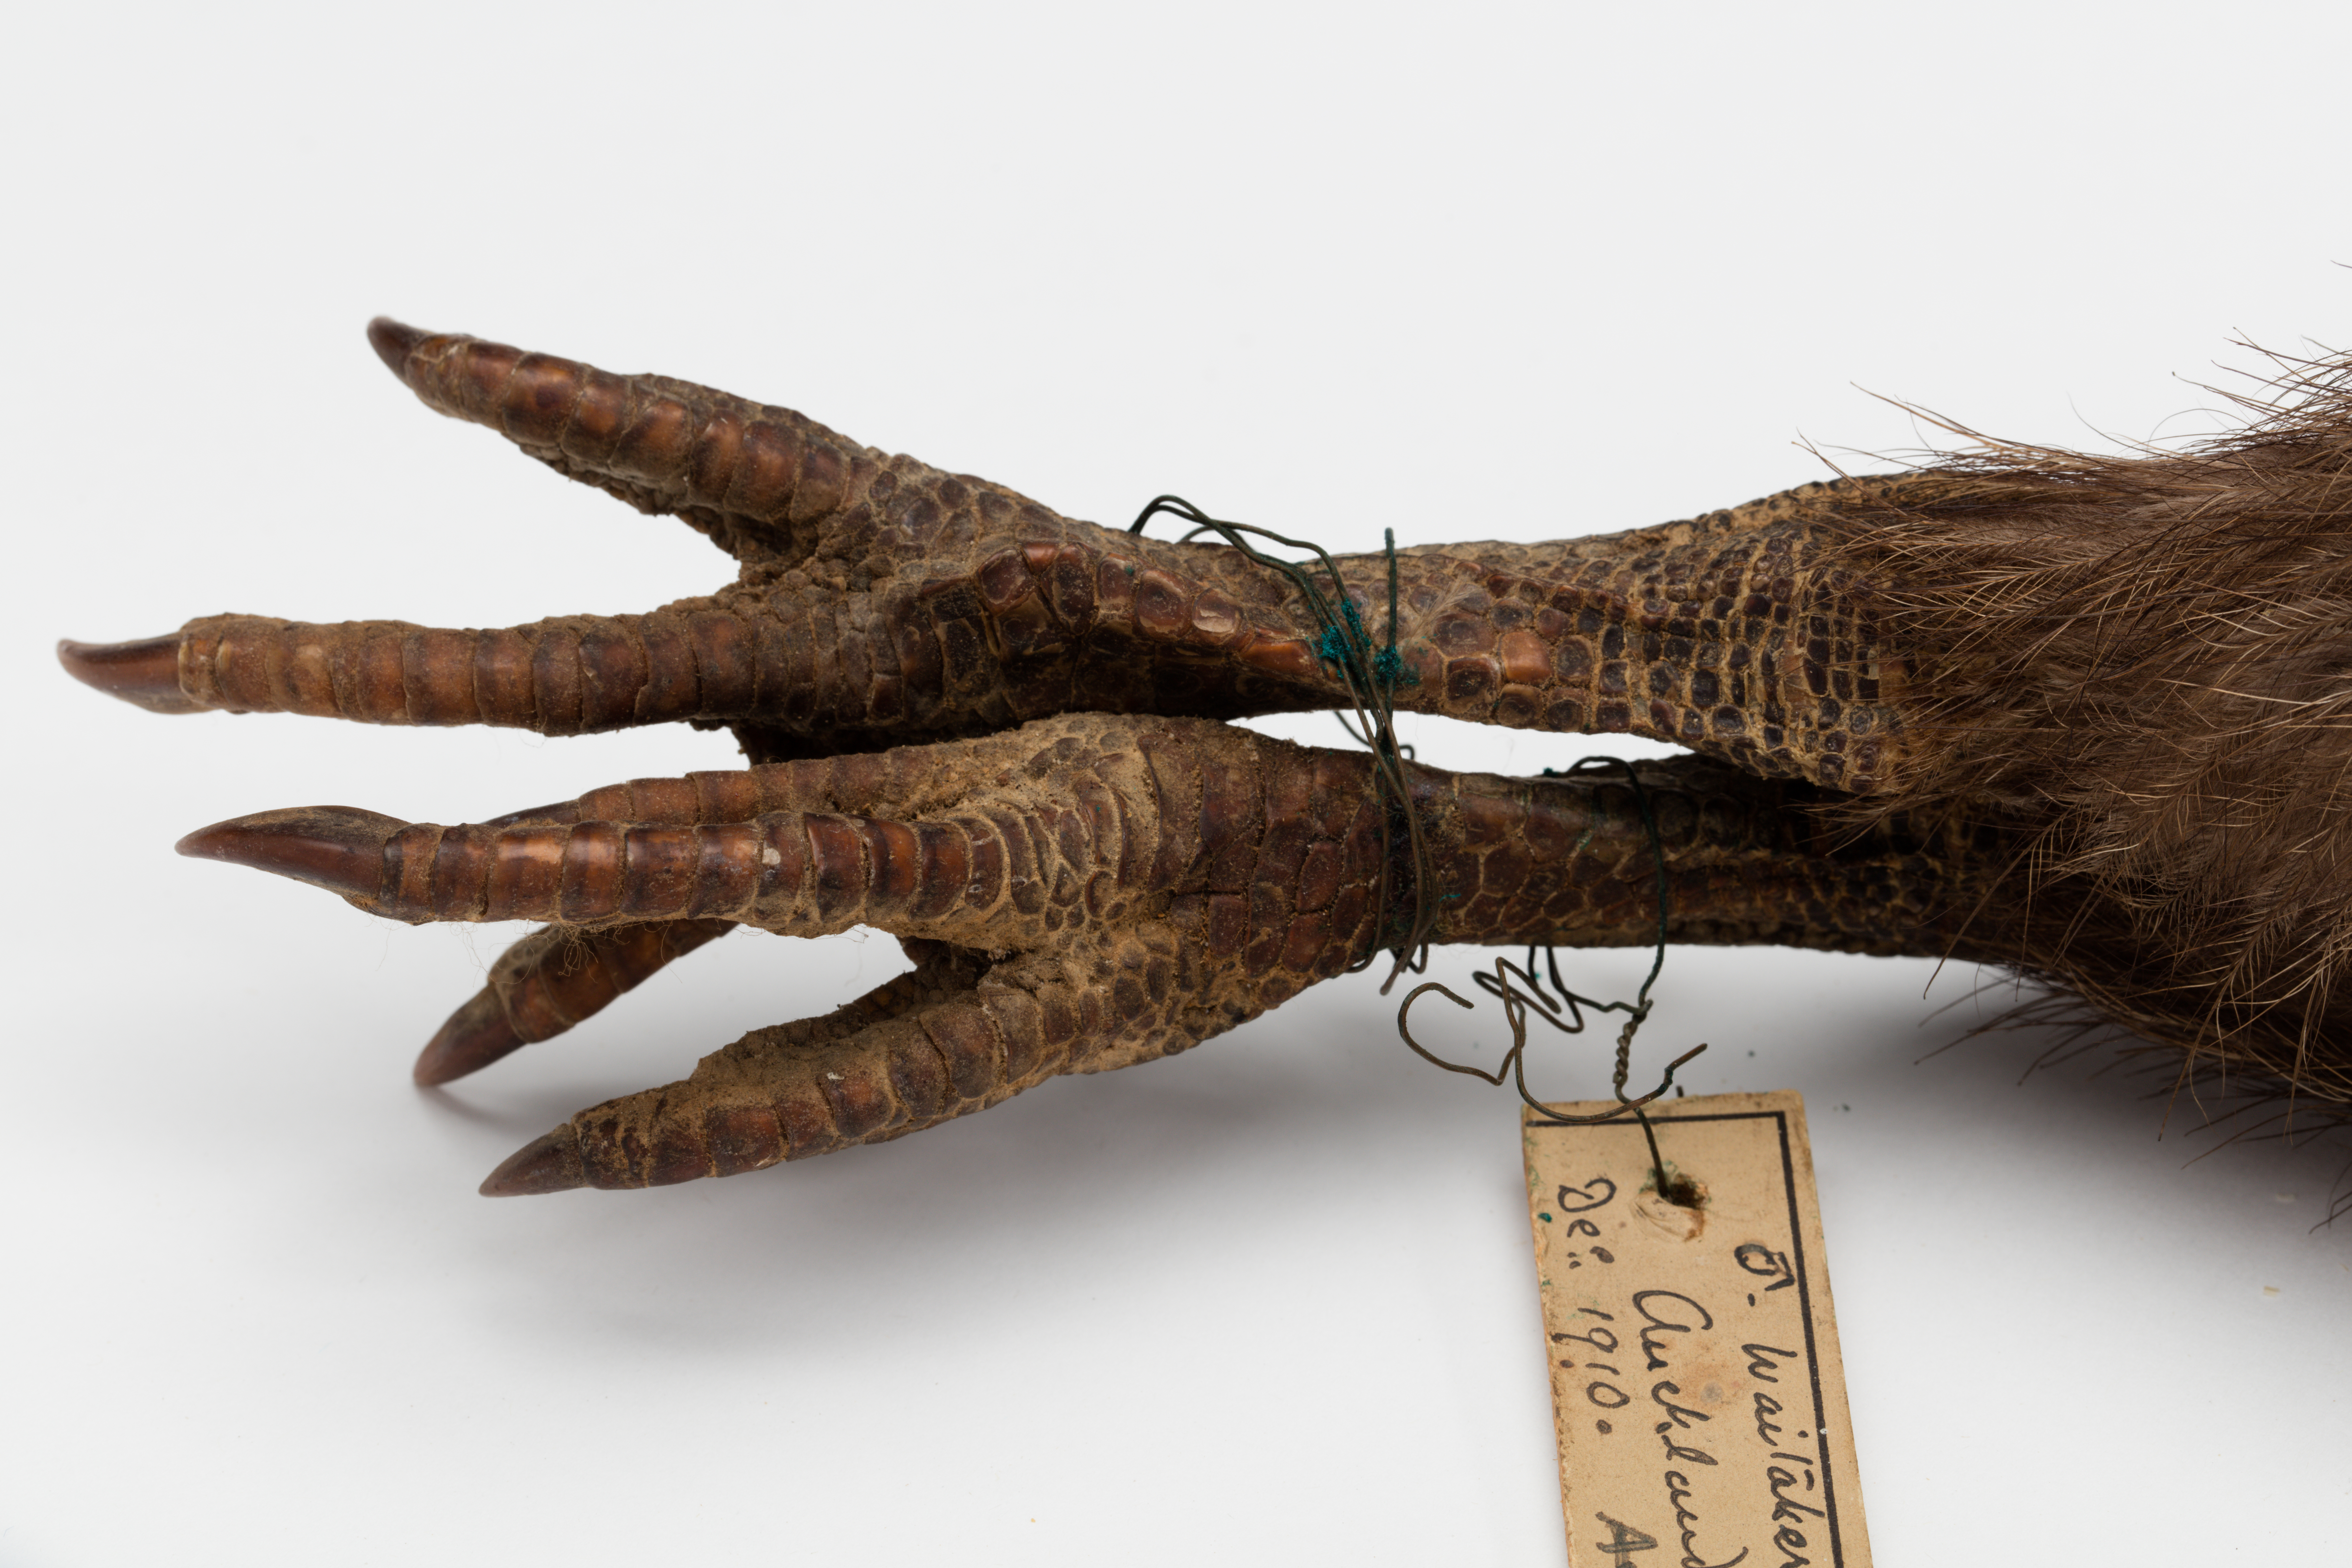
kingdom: Animalia
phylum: Chordata
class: Aves
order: Apterygiformes
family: Apterygidae
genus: Apteryx
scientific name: Apteryx mantelli
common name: North island brown kiwi
